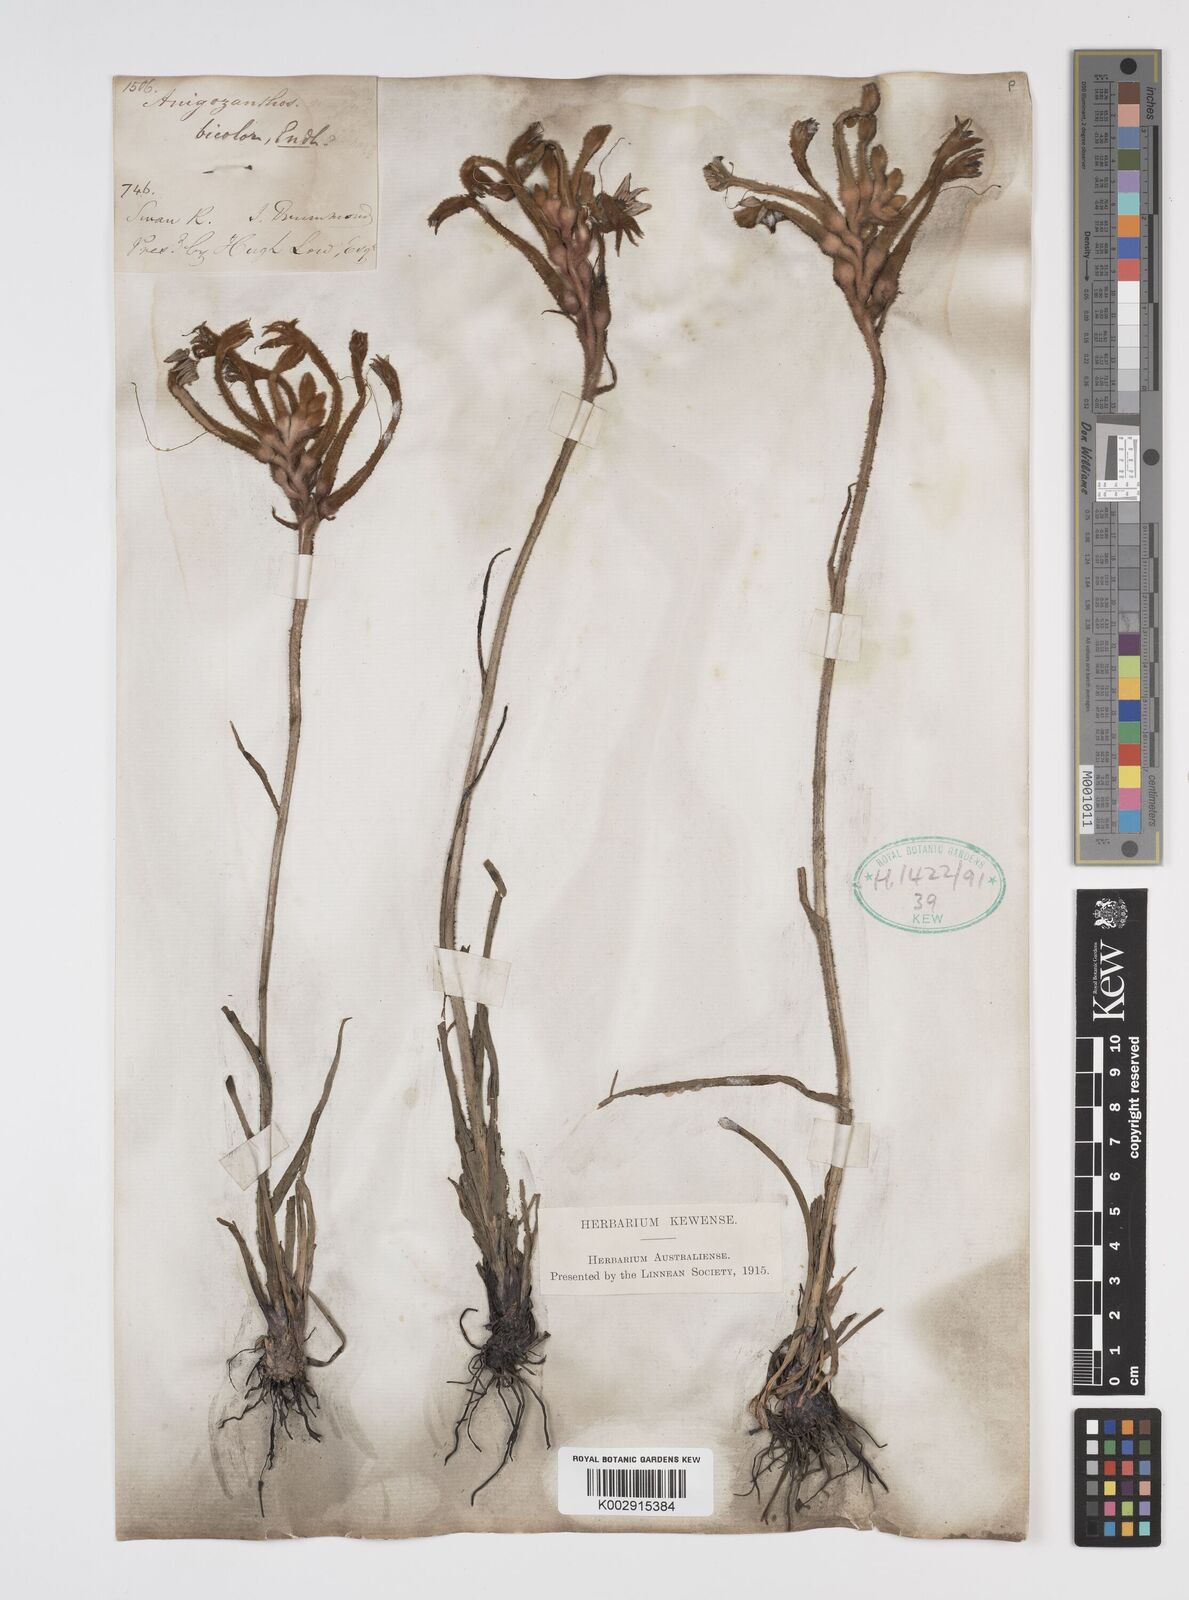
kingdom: Plantae
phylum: Tracheophyta
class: Liliopsida
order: Commelinales
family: Haemodoraceae
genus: Anigozanthos
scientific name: Anigozanthos bicolor
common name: Little kangaroo-paw
